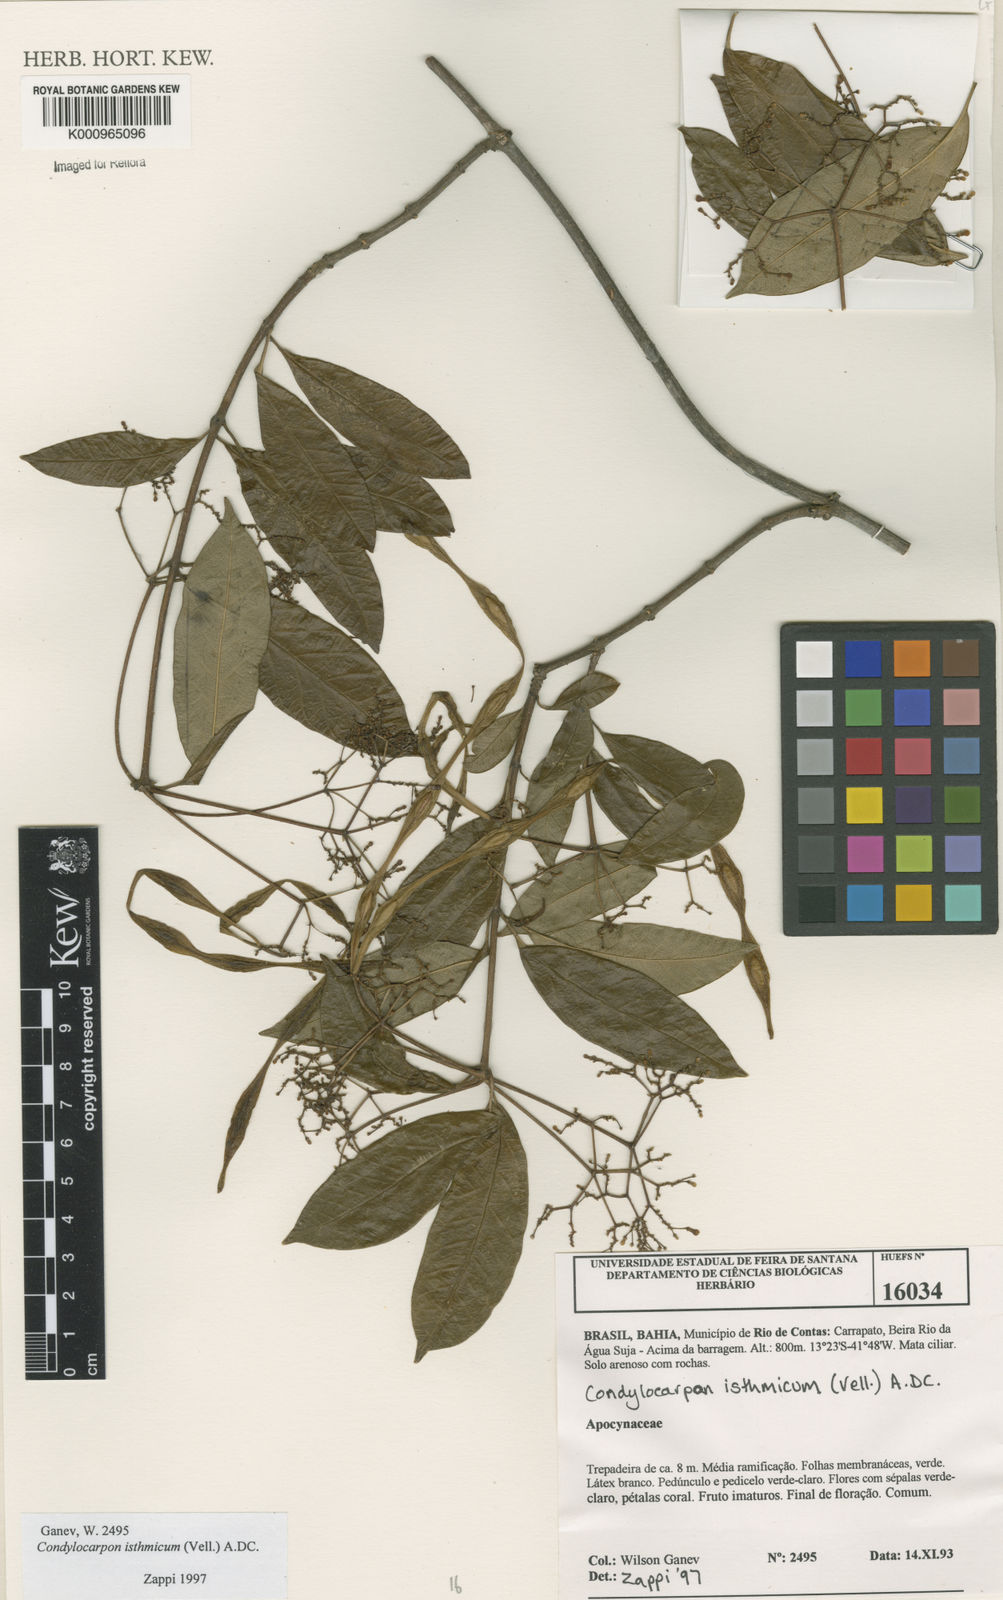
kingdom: Plantae
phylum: Tracheophyta
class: Magnoliopsida
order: Gentianales
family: Apocynaceae
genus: Condylocarpon
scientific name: Condylocarpon isthmicum
